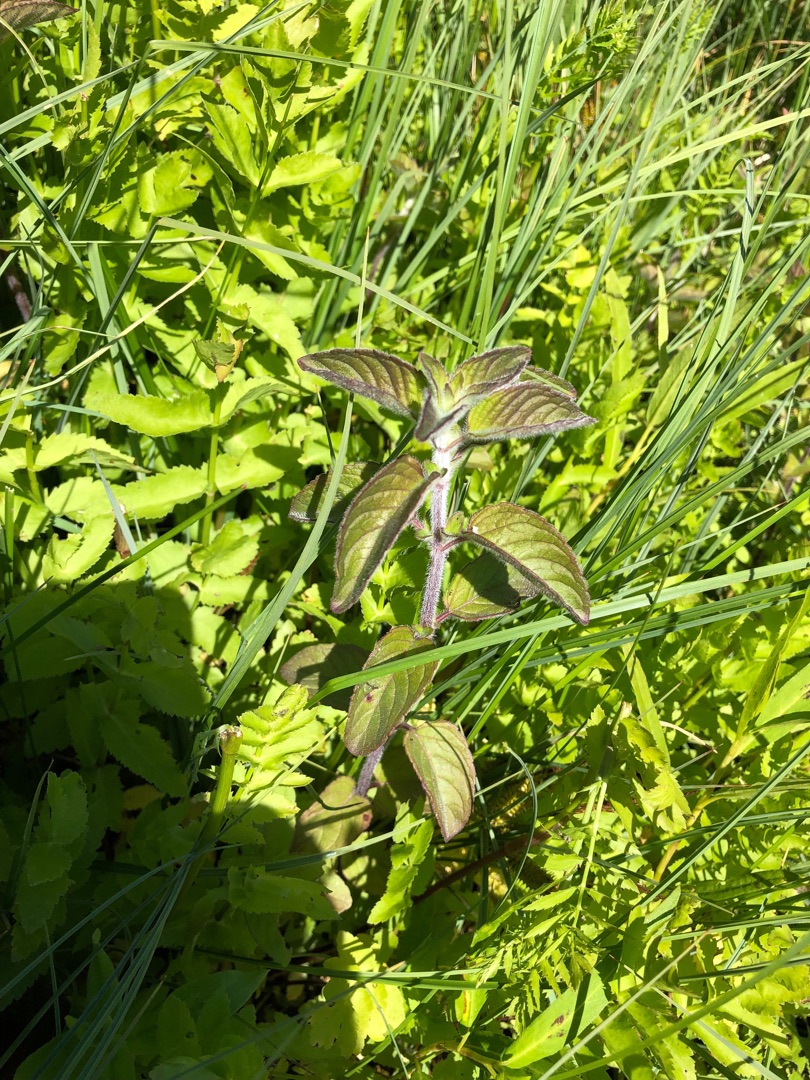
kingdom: Plantae
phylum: Tracheophyta
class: Magnoliopsida
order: Lamiales
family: Lamiaceae
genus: Mentha
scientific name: Mentha aquatica
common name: Vand-mynte
